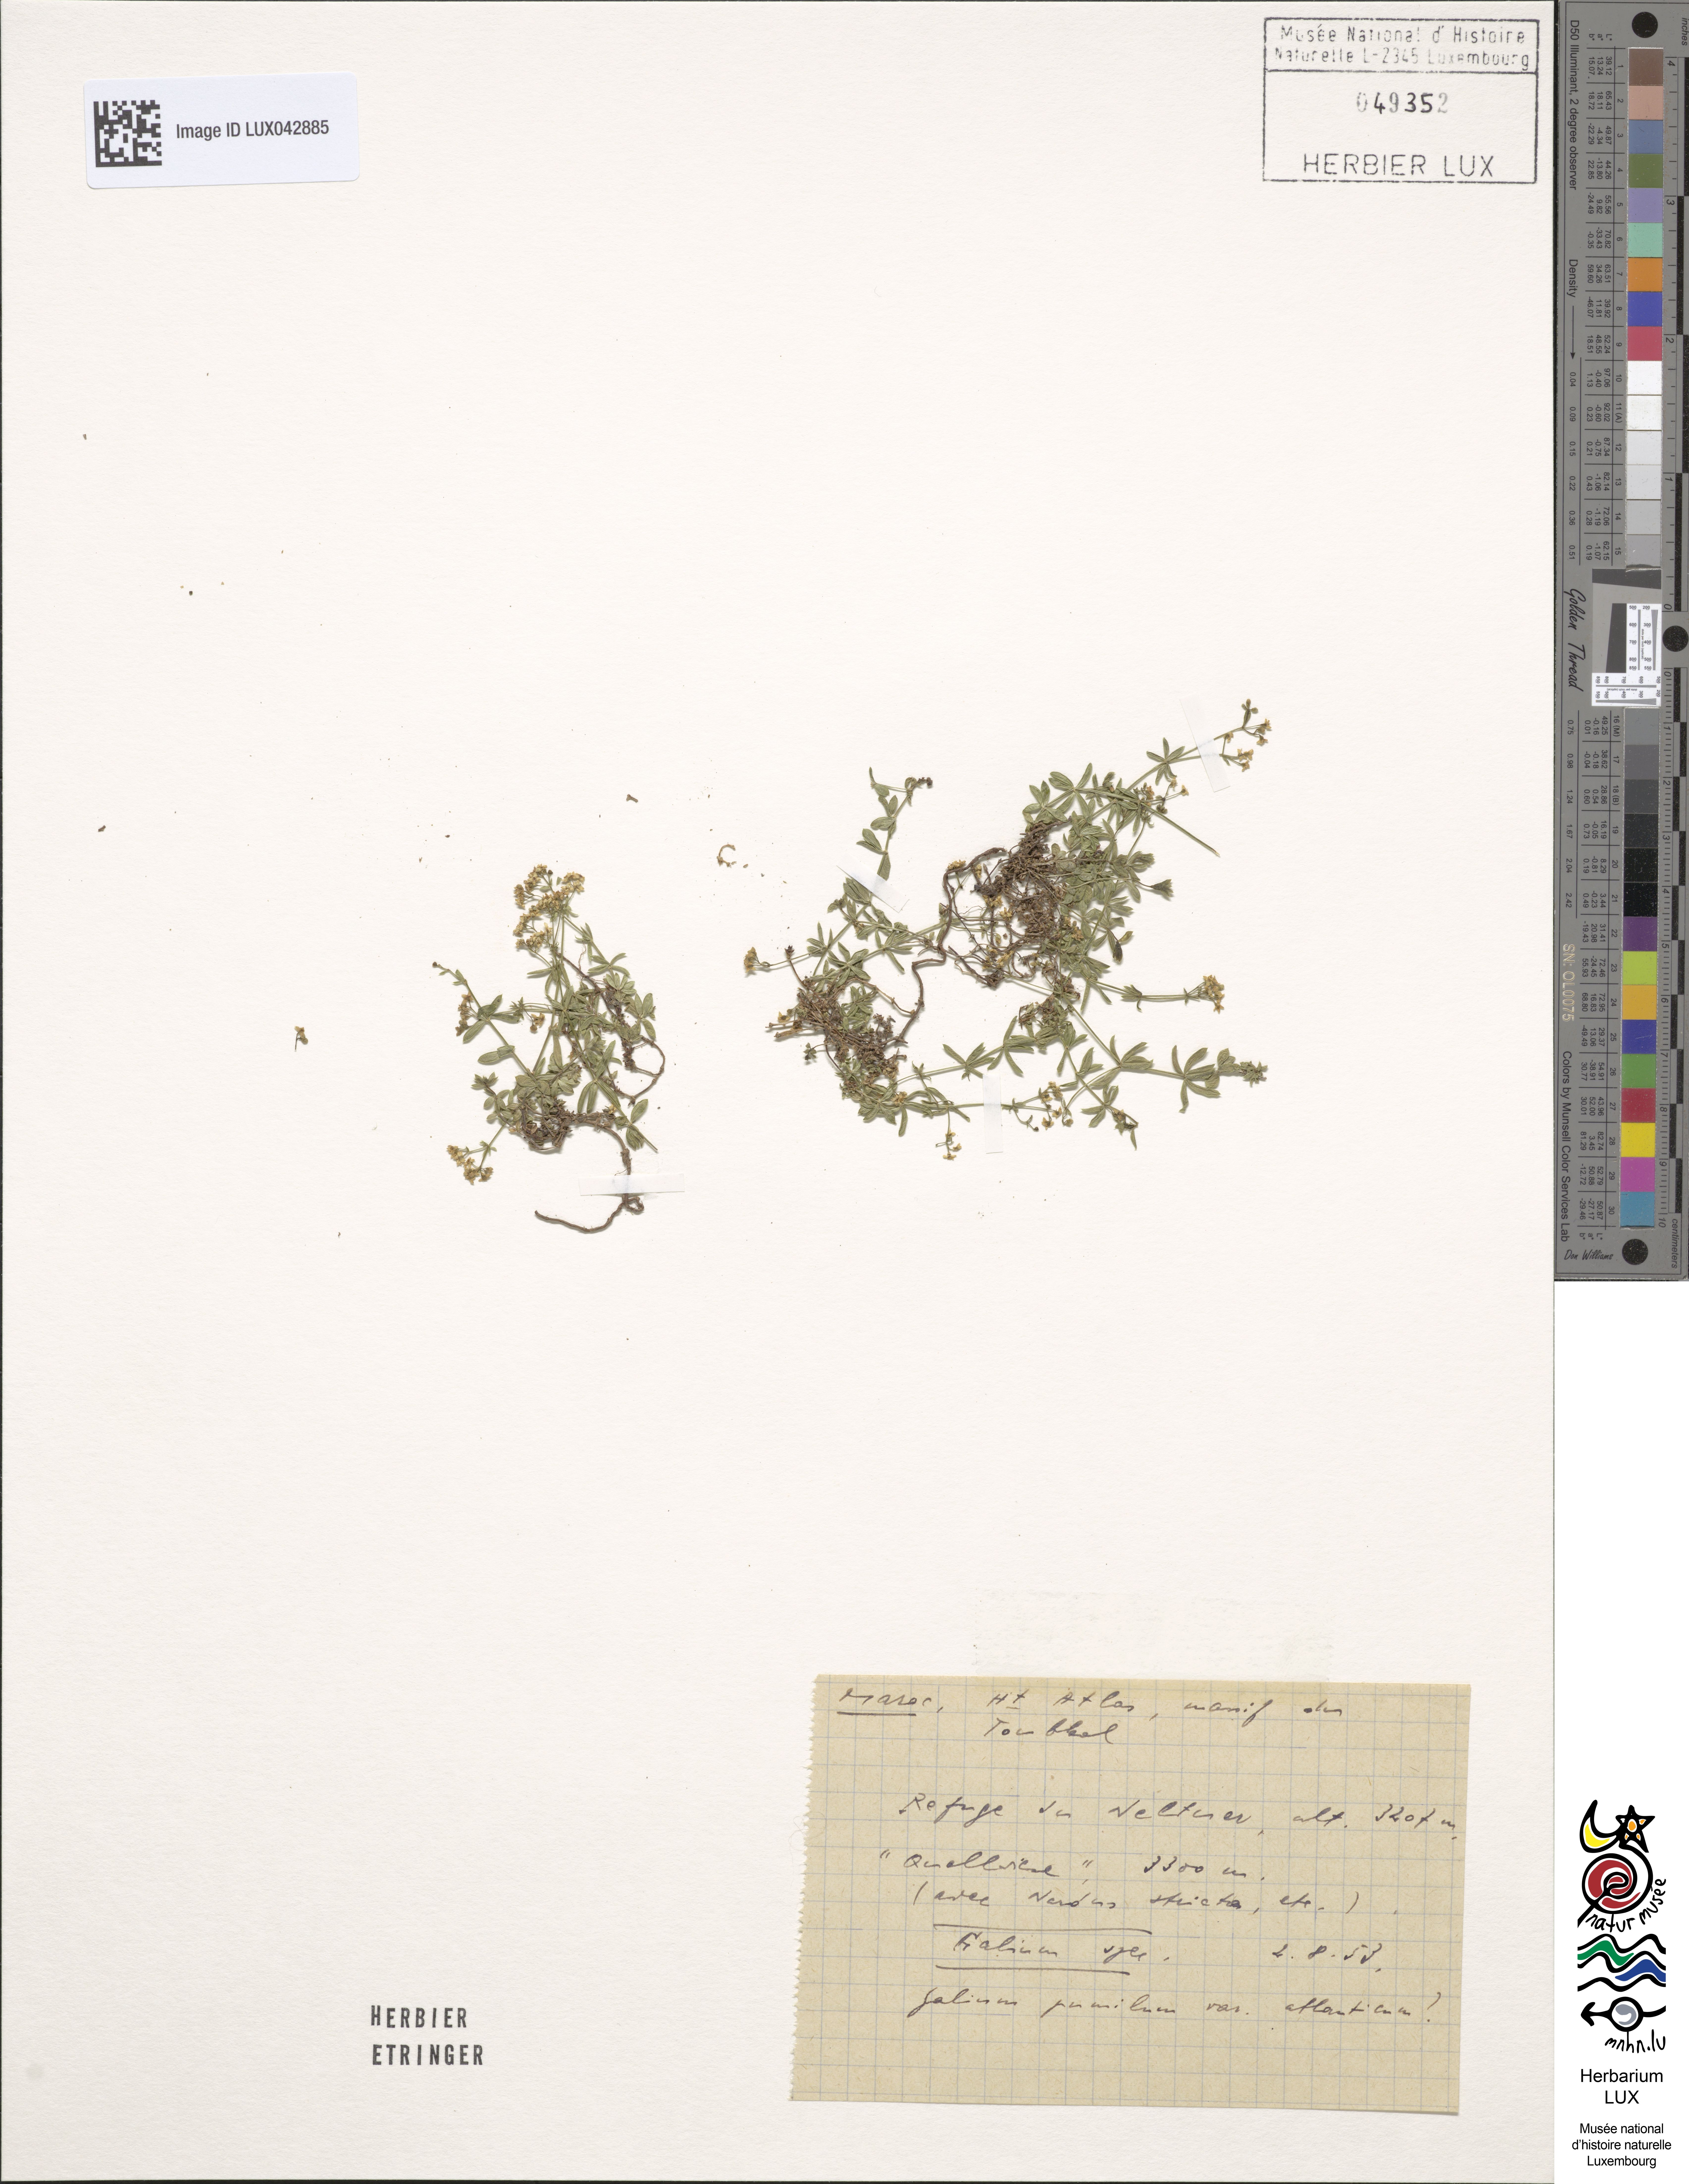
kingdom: Plantae
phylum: Tracheophyta
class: Magnoliopsida
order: Gentianales
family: Rubiaceae
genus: Galium
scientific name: Galium pumilum
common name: Slender bedstraw
